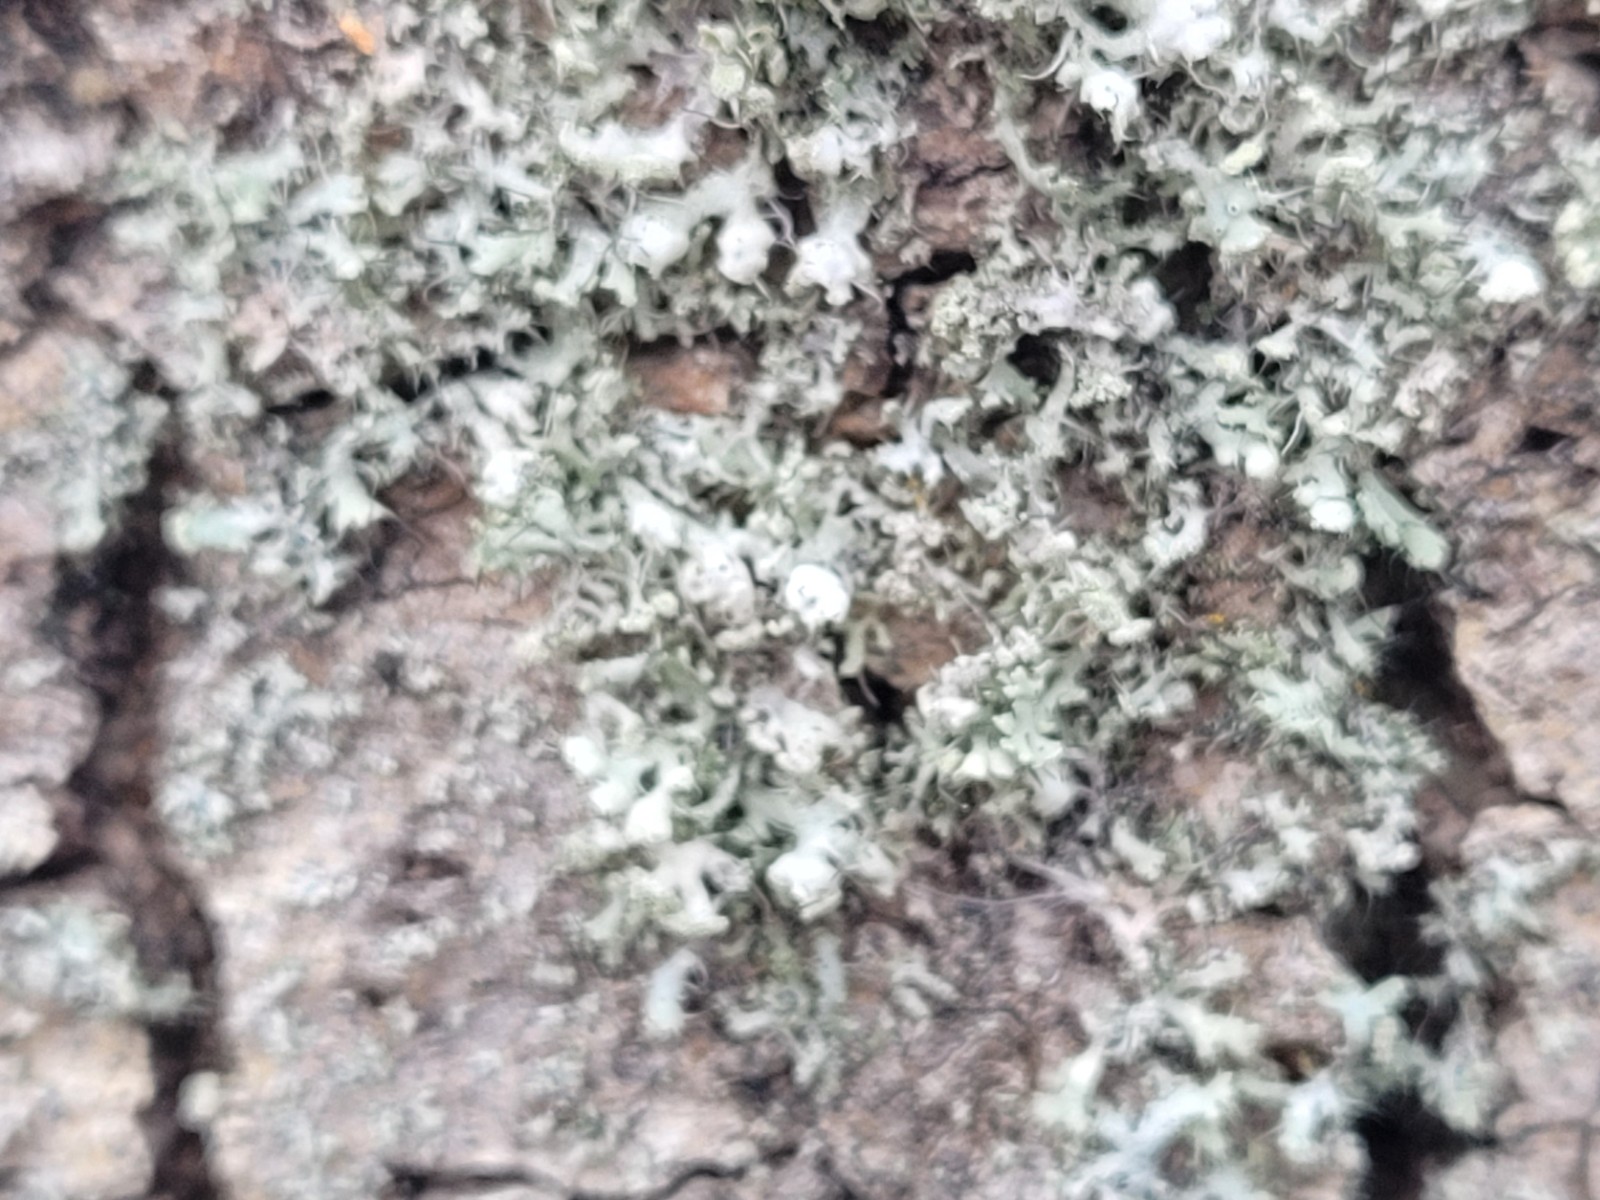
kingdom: Fungi
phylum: Ascomycota
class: Lecanoromycetes
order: Caliciales
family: Physciaceae
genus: Physcia
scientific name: Physcia adscendens
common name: hætte-rosetlav
